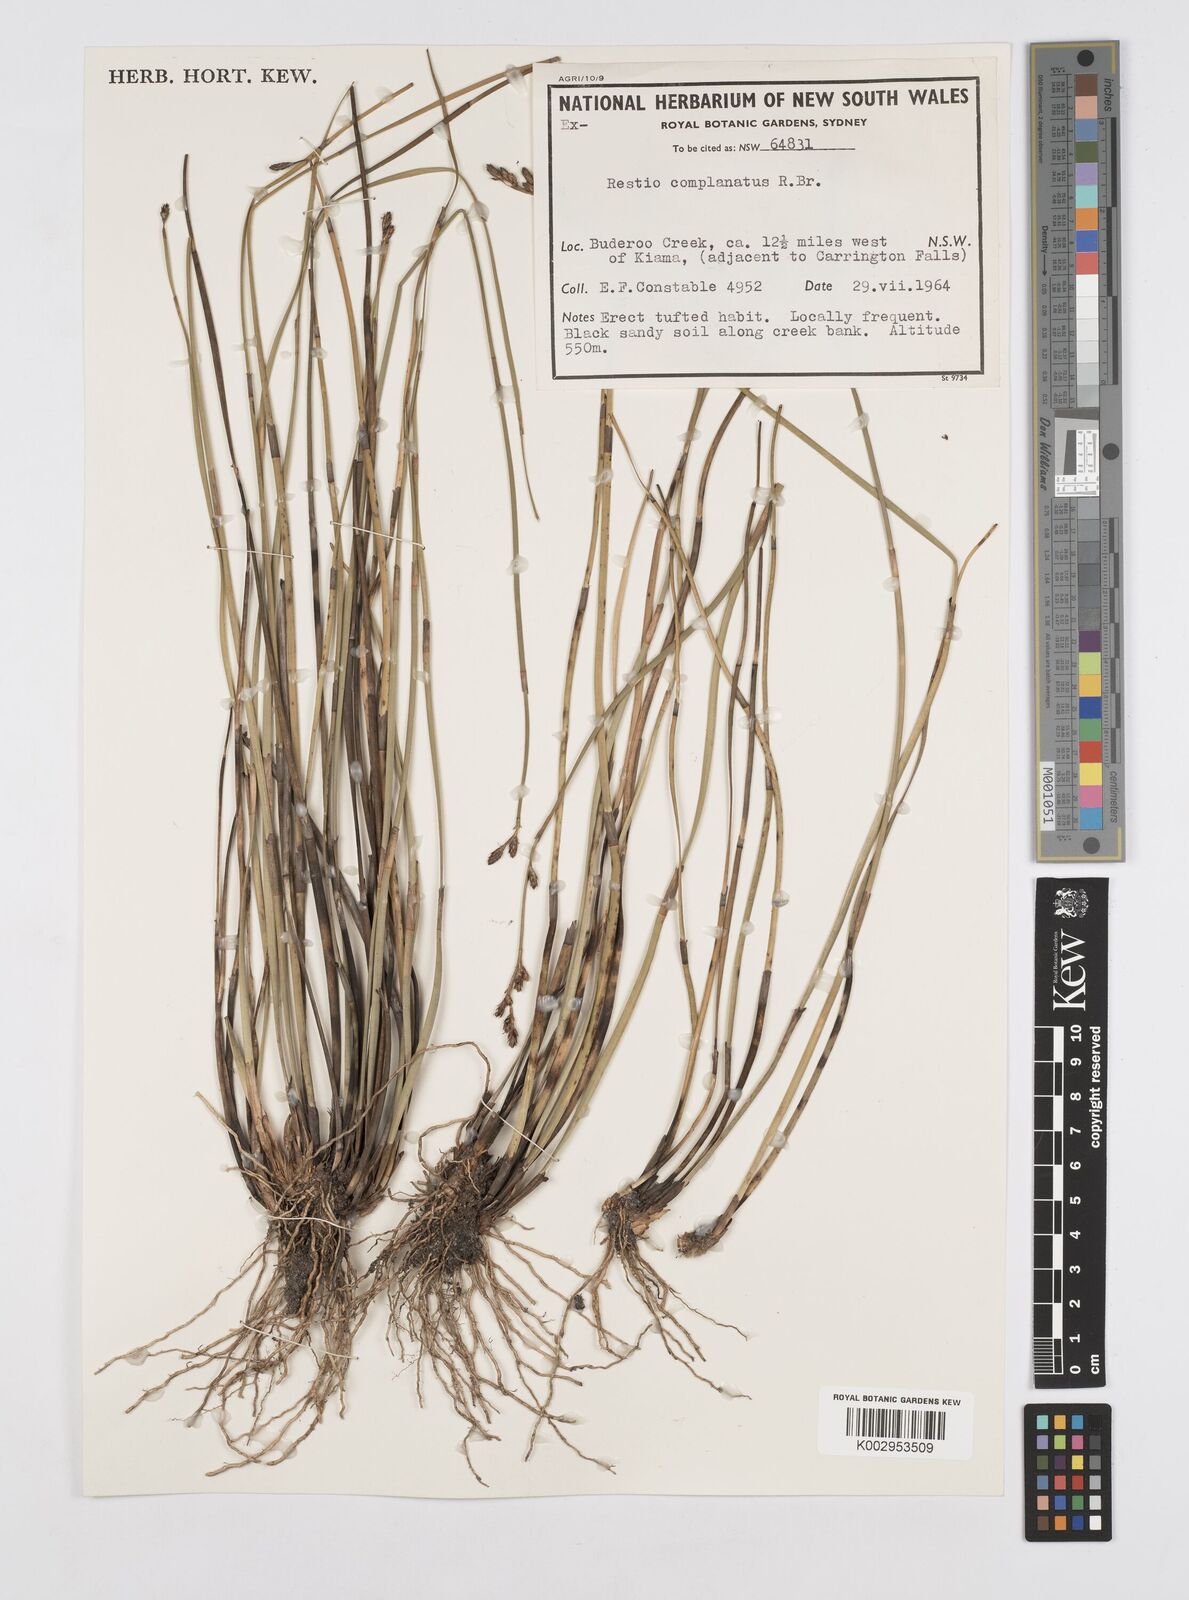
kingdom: Plantae
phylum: Tracheophyta
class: Liliopsida
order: Poales
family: Restionaceae
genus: Eurychorda
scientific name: Eurychorda complanata
